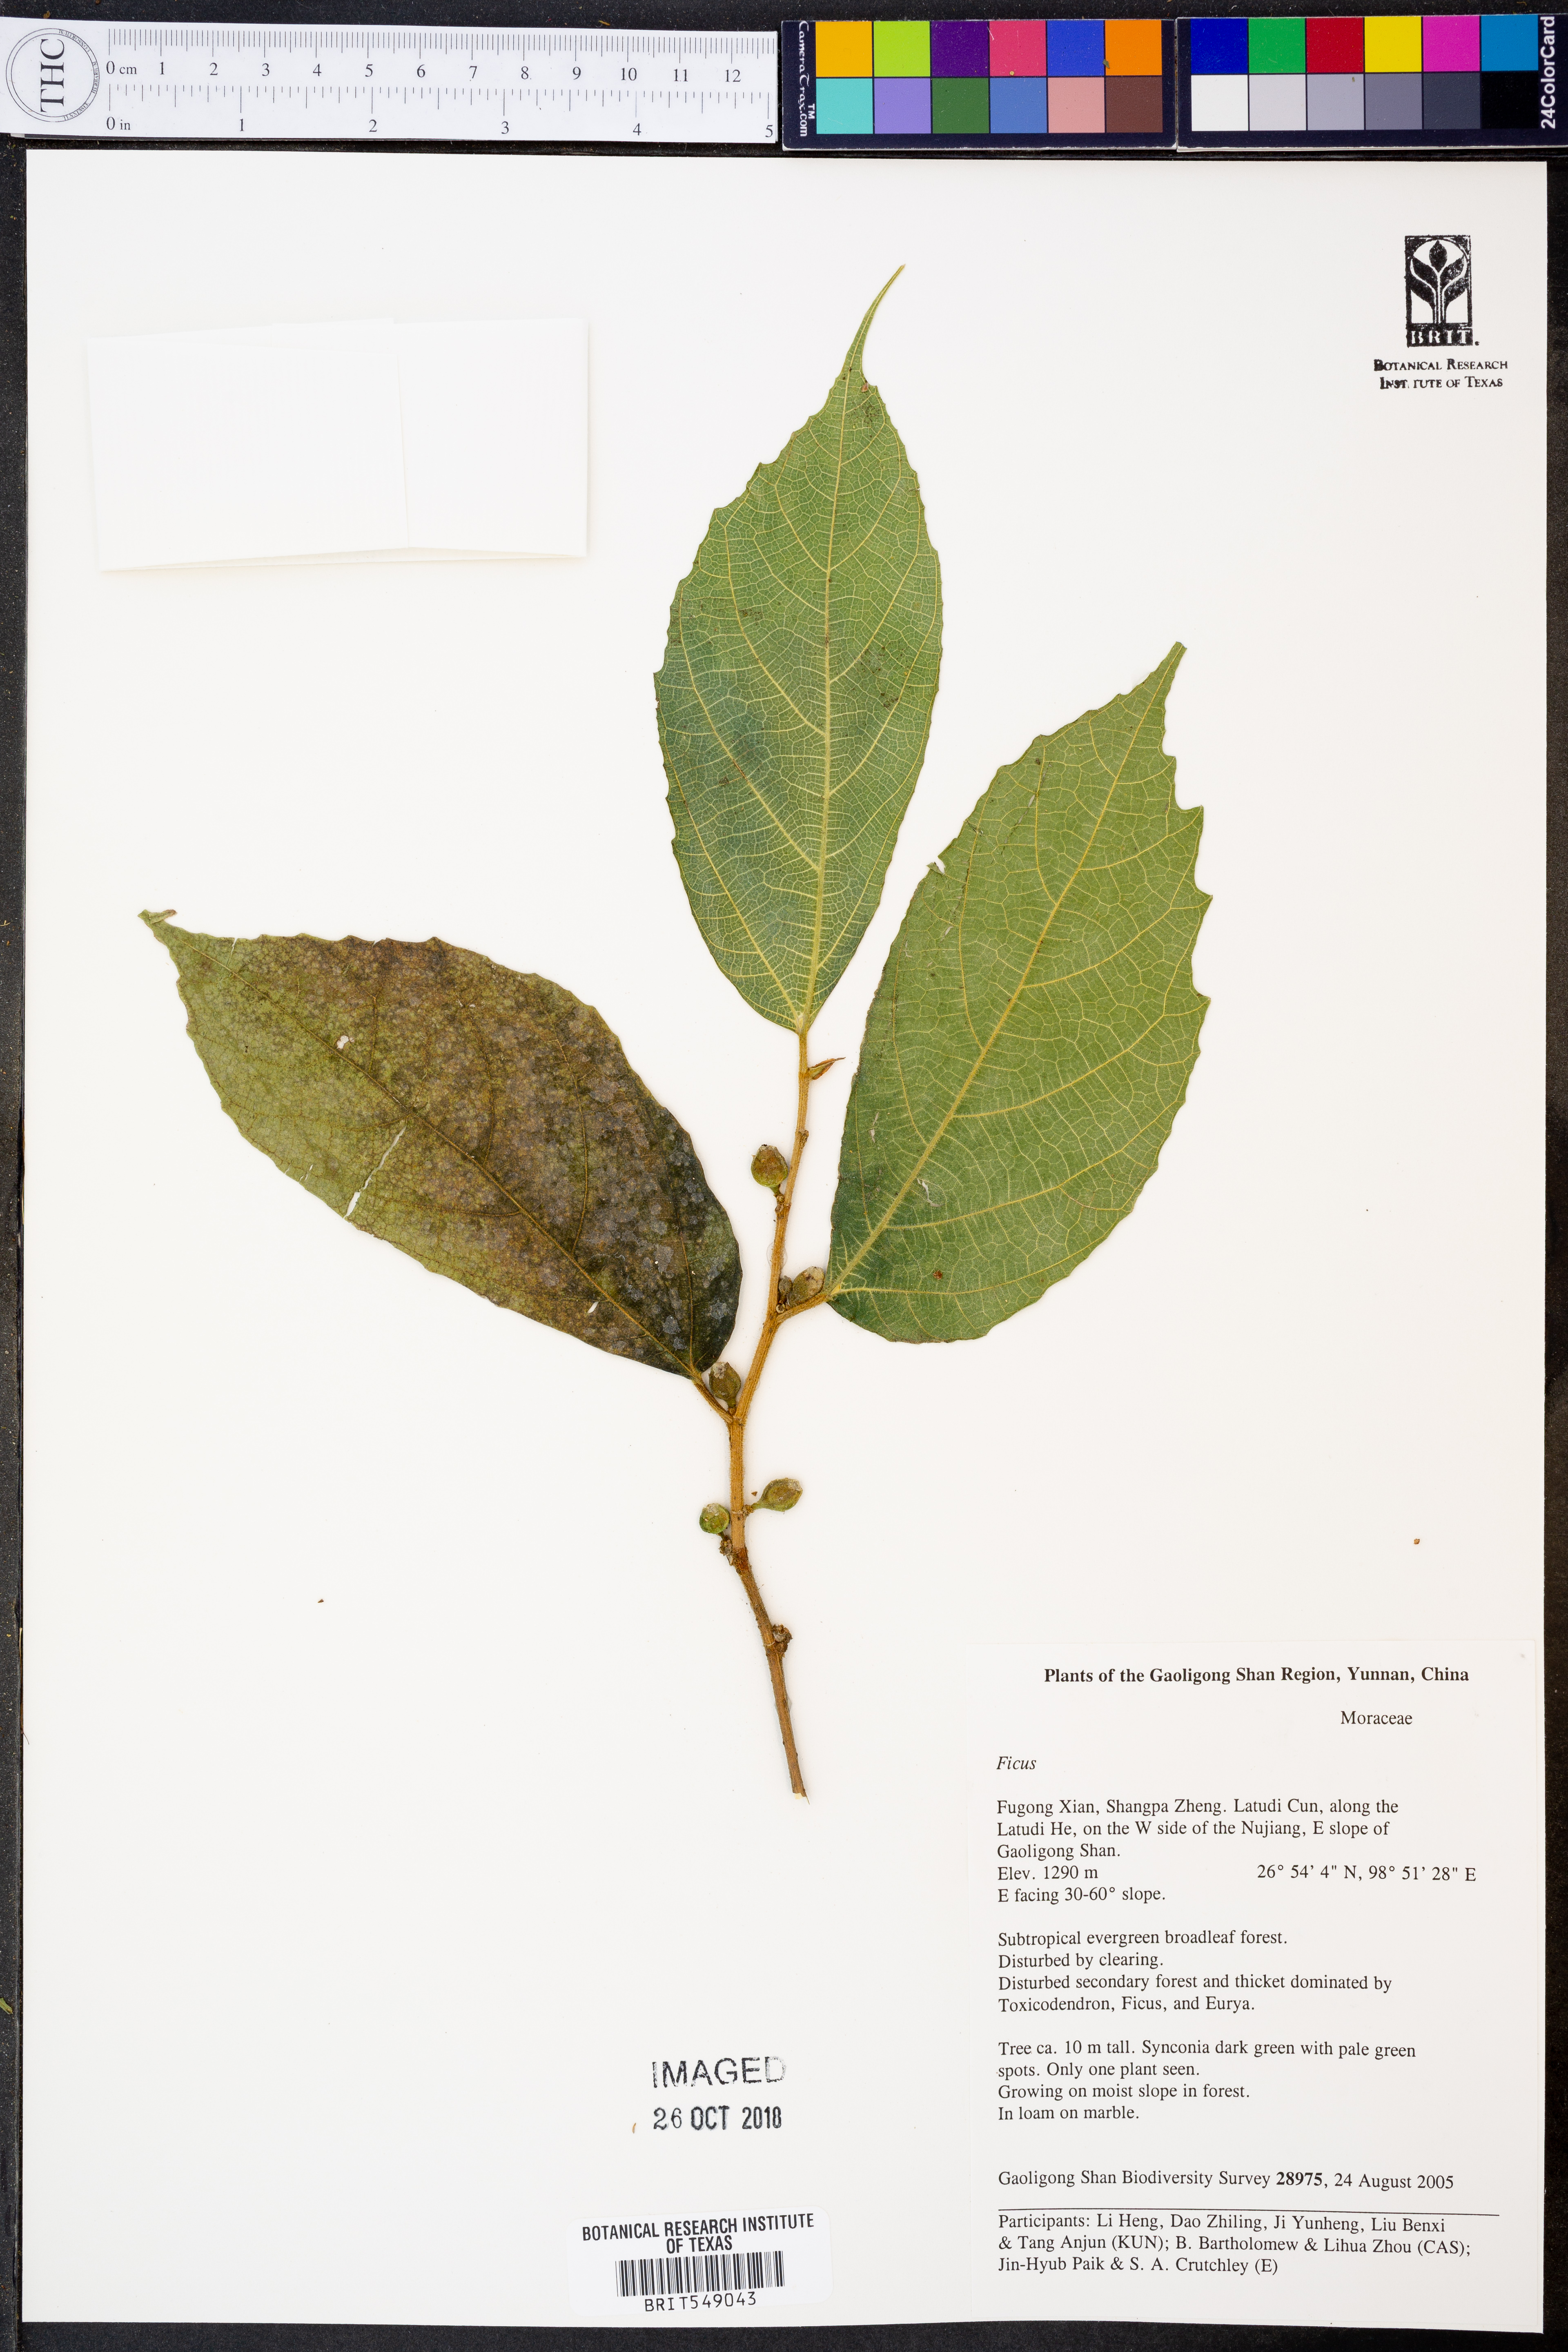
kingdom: Plantae
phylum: Tracheophyta
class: Magnoliopsida
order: Rosales
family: Moraceae
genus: Ficus
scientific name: Ficus
